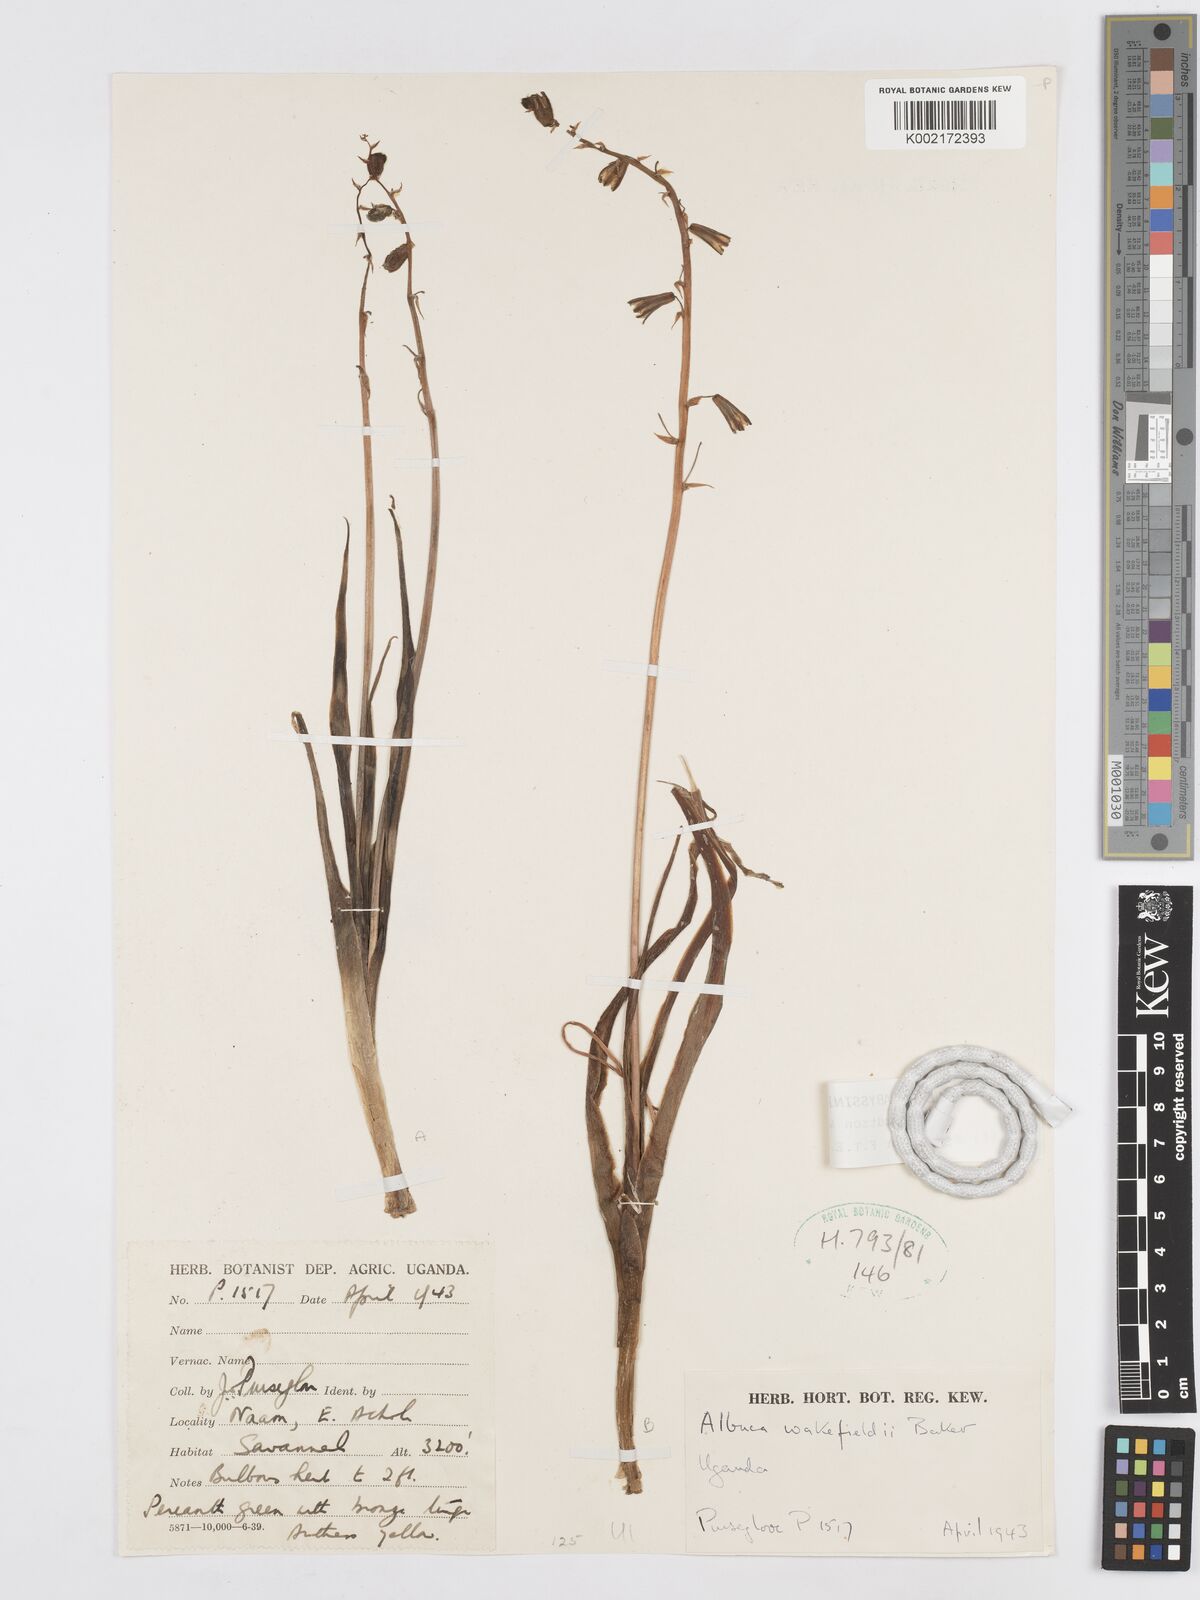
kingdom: Plantae
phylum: Tracheophyta
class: Liliopsida
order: Asparagales
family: Asparagaceae
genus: Albuca
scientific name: Albuca abyssinica
